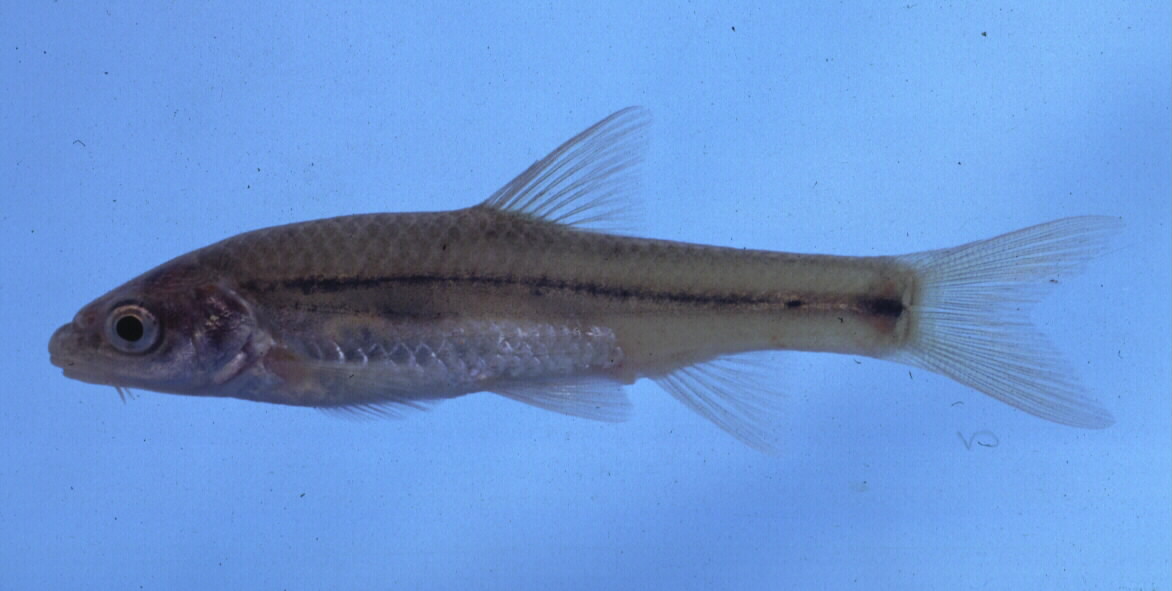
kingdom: Animalia
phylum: Chordata
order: Cypriniformes
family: Cyprinidae
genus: Pseudobarbus
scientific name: Pseudobarbus trevelyani
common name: Border barb
